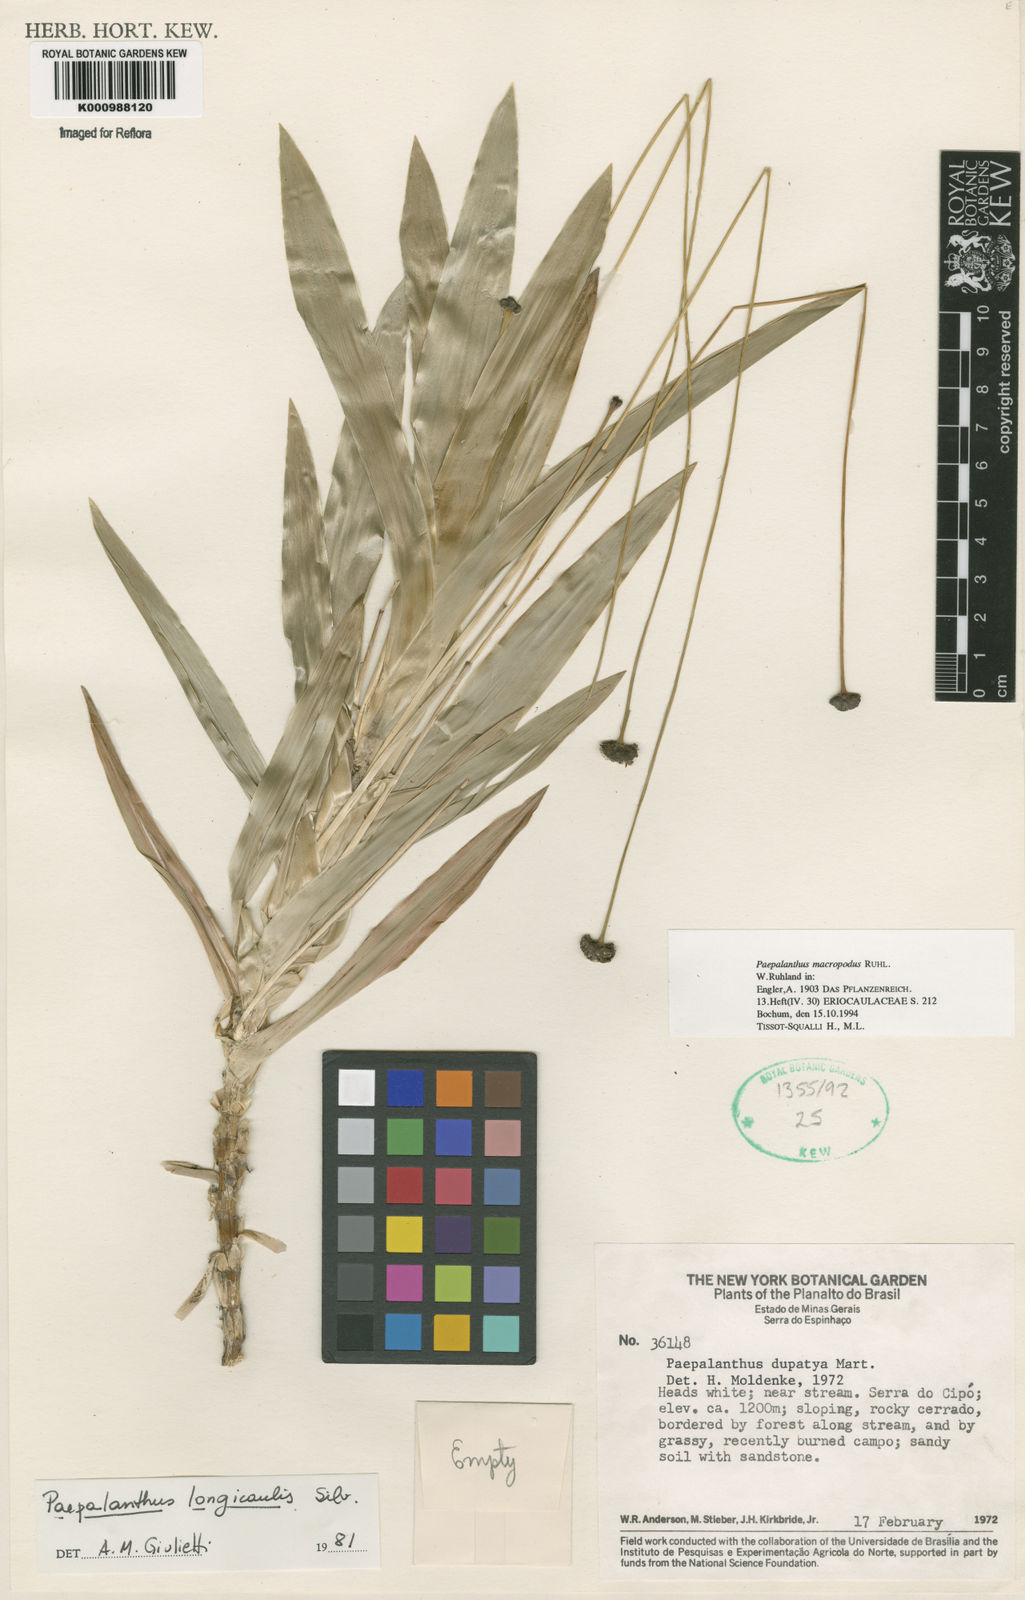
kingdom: Plantae
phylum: Tracheophyta
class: Liliopsida
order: Poales
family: Eriocaulaceae
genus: Paepalanthus
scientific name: Paepalanthus macropodus
